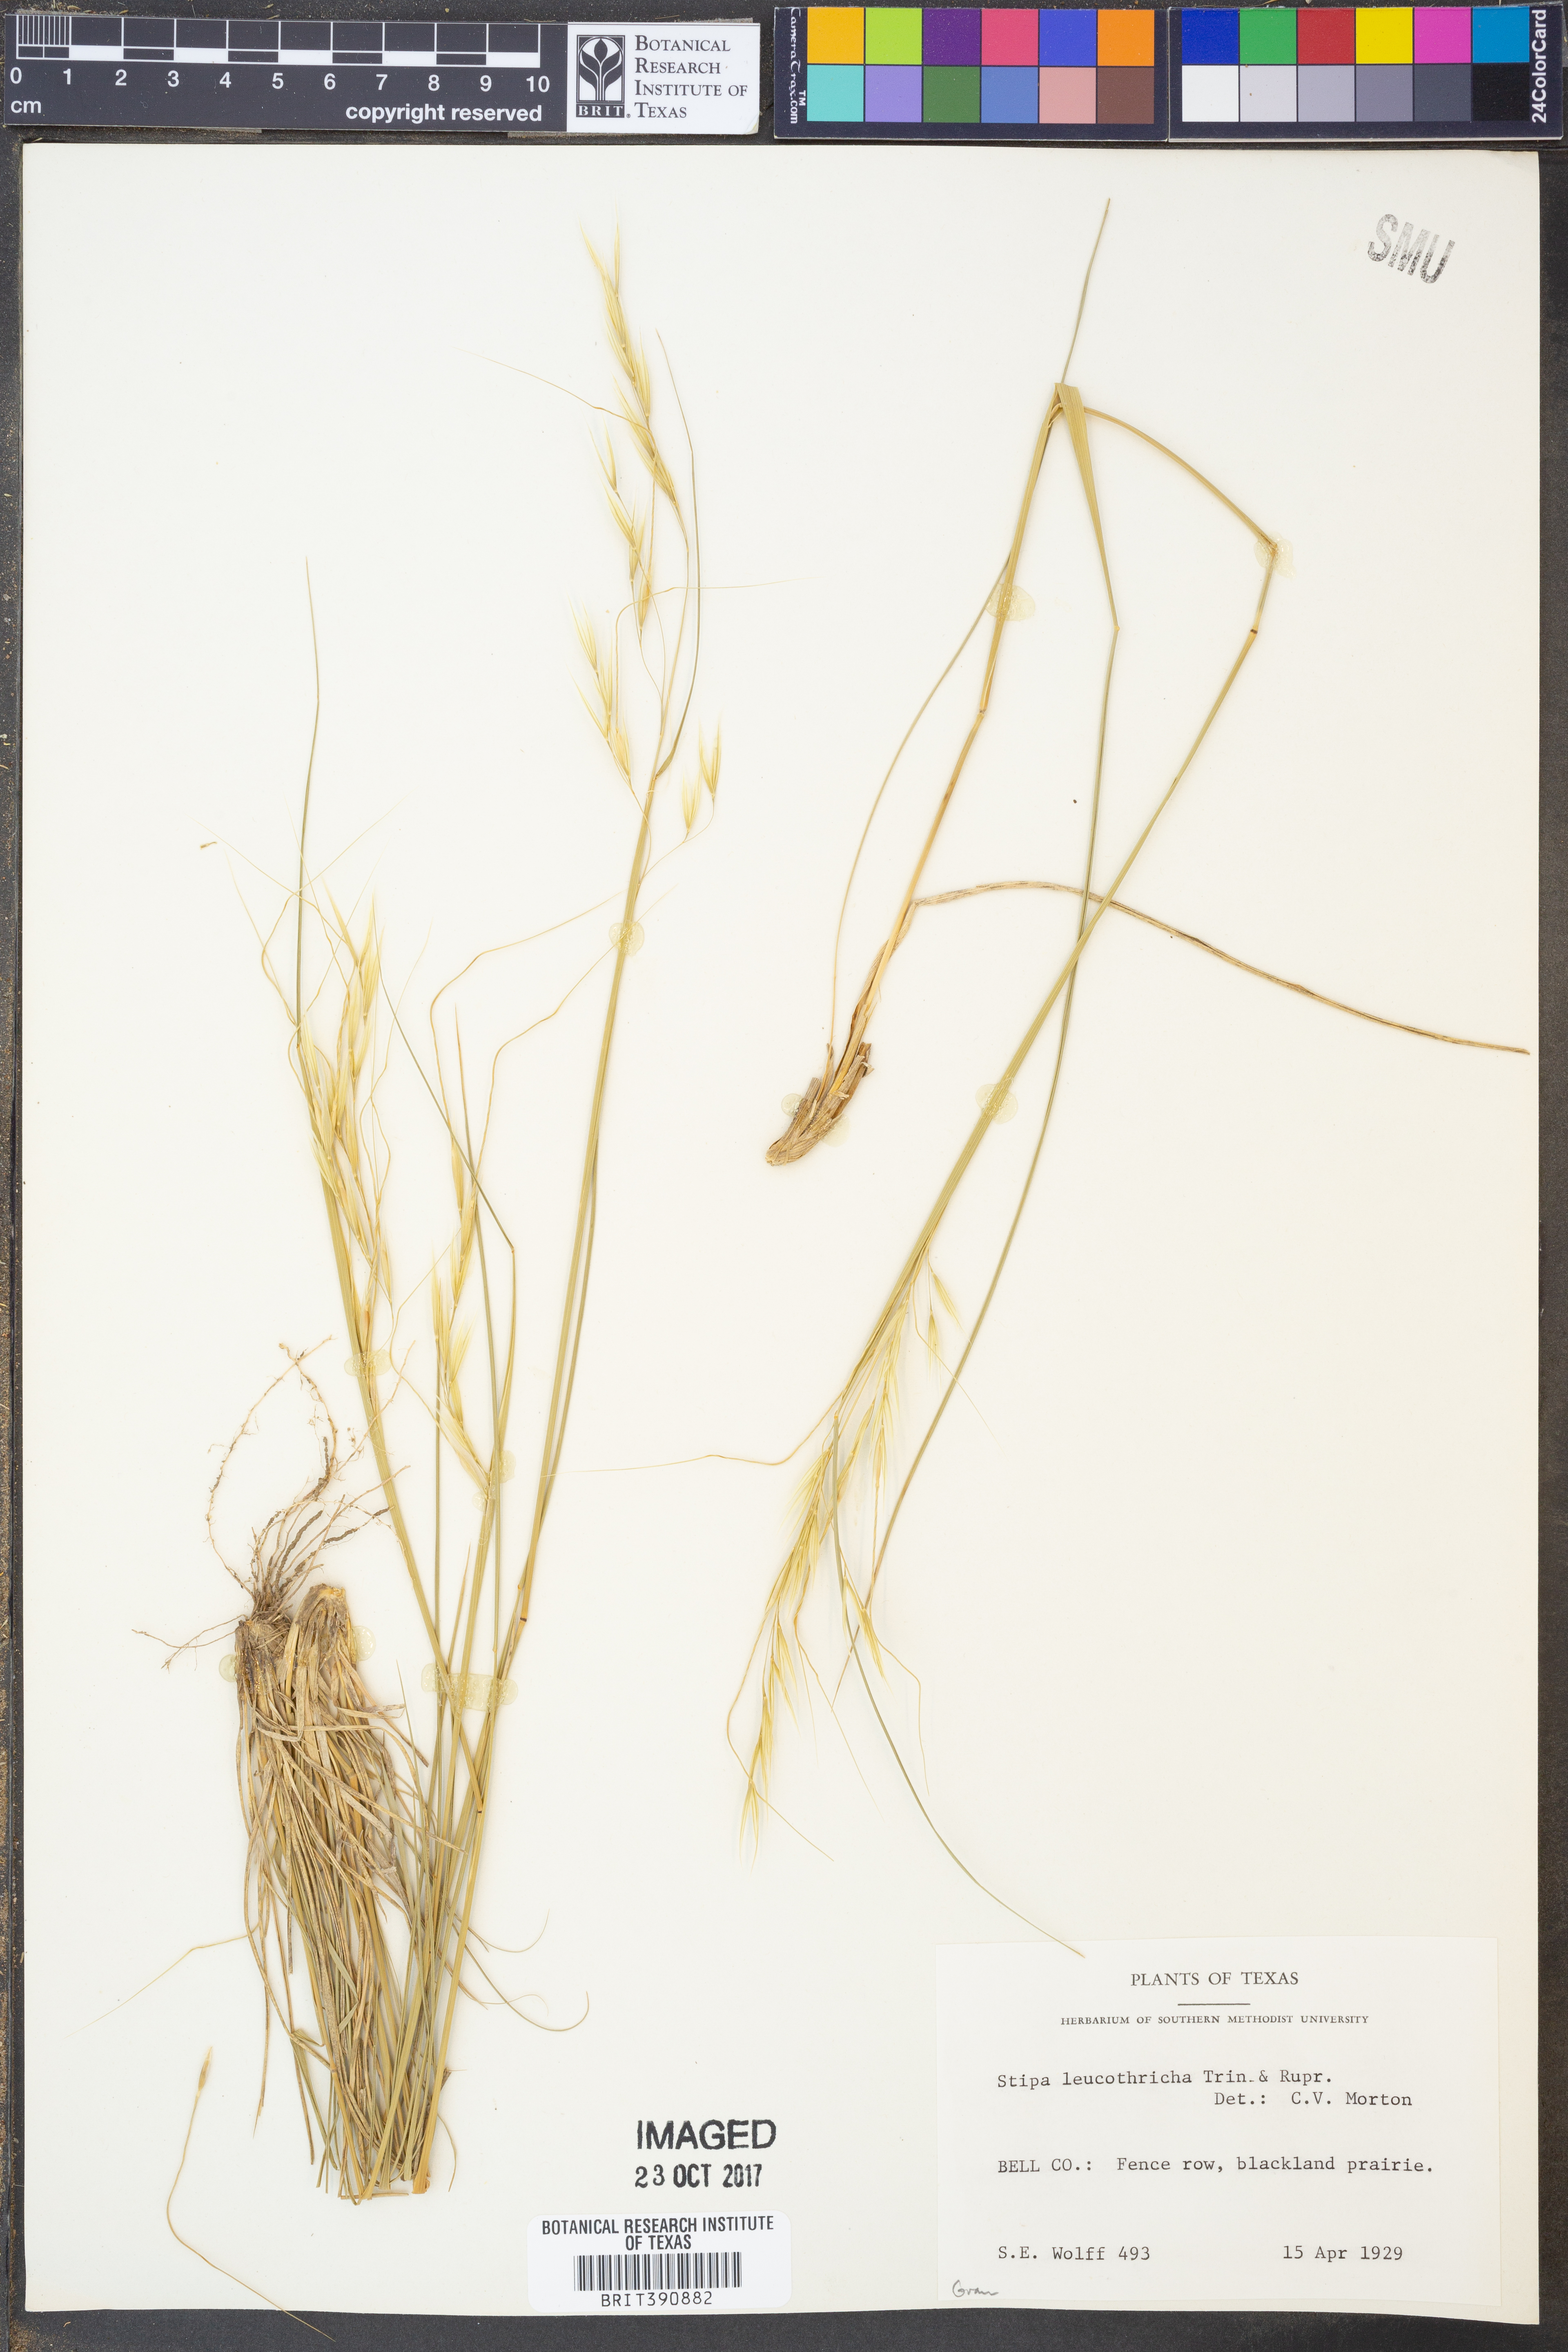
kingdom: Plantae
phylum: Tracheophyta
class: Liliopsida
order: Poales
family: Poaceae
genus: Nassella
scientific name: Nassella leucotricha
